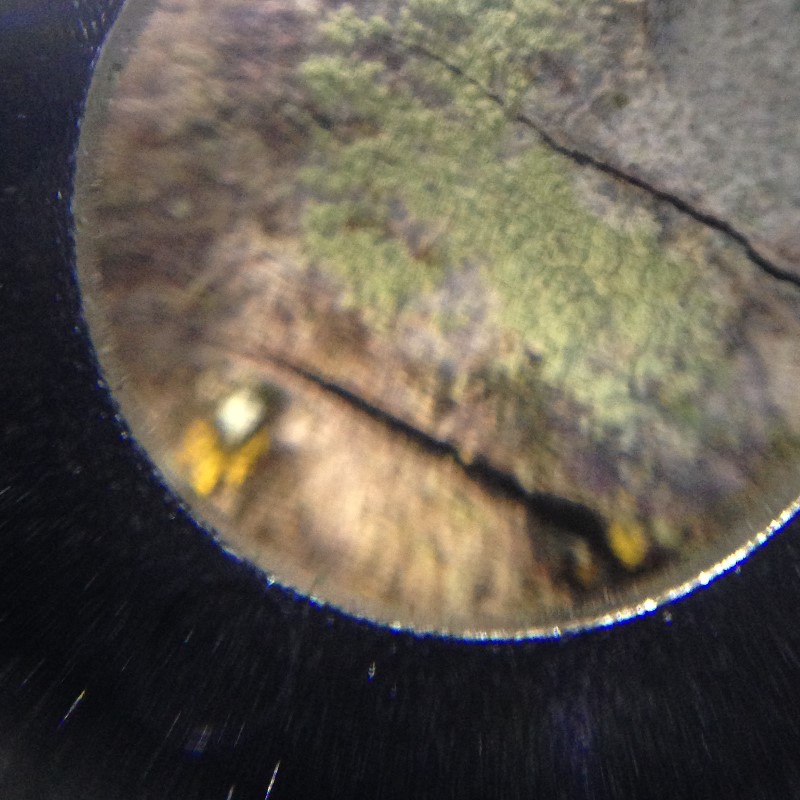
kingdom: Fungi
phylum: Ascomycota
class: Lecanoromycetes
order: Lecanorales
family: Lecanoraceae
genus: Lecanora
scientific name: Lecanora expallens
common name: bleggul kantskivelav
